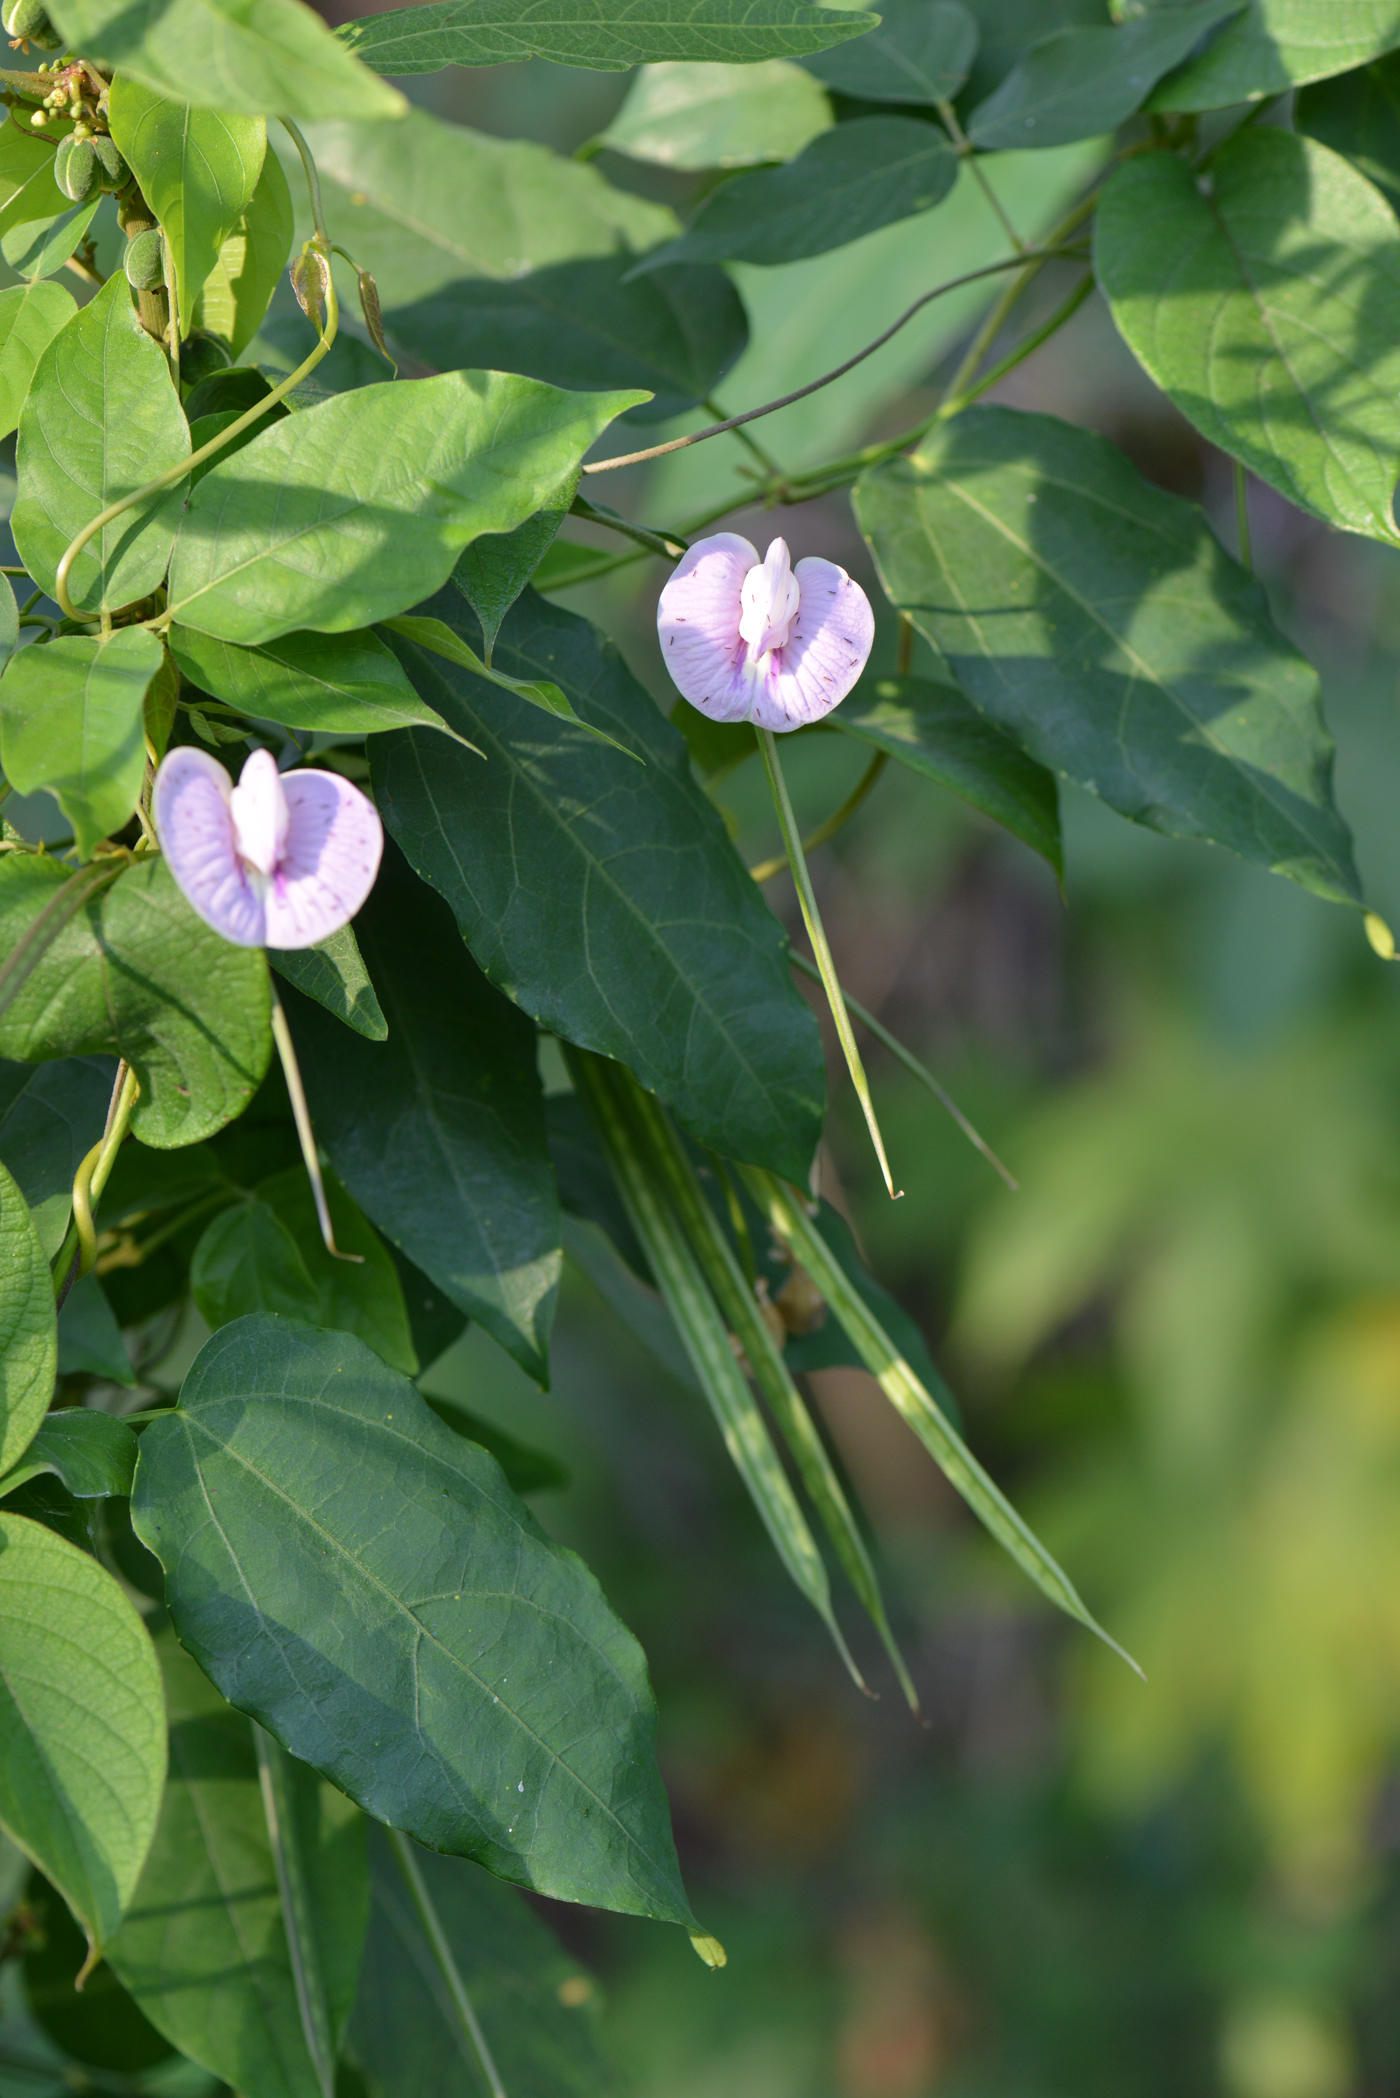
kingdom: Plantae
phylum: Tracheophyta
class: Magnoliopsida
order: Fabales
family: Fabaceae
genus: Centrosema
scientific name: Centrosema pubescens
